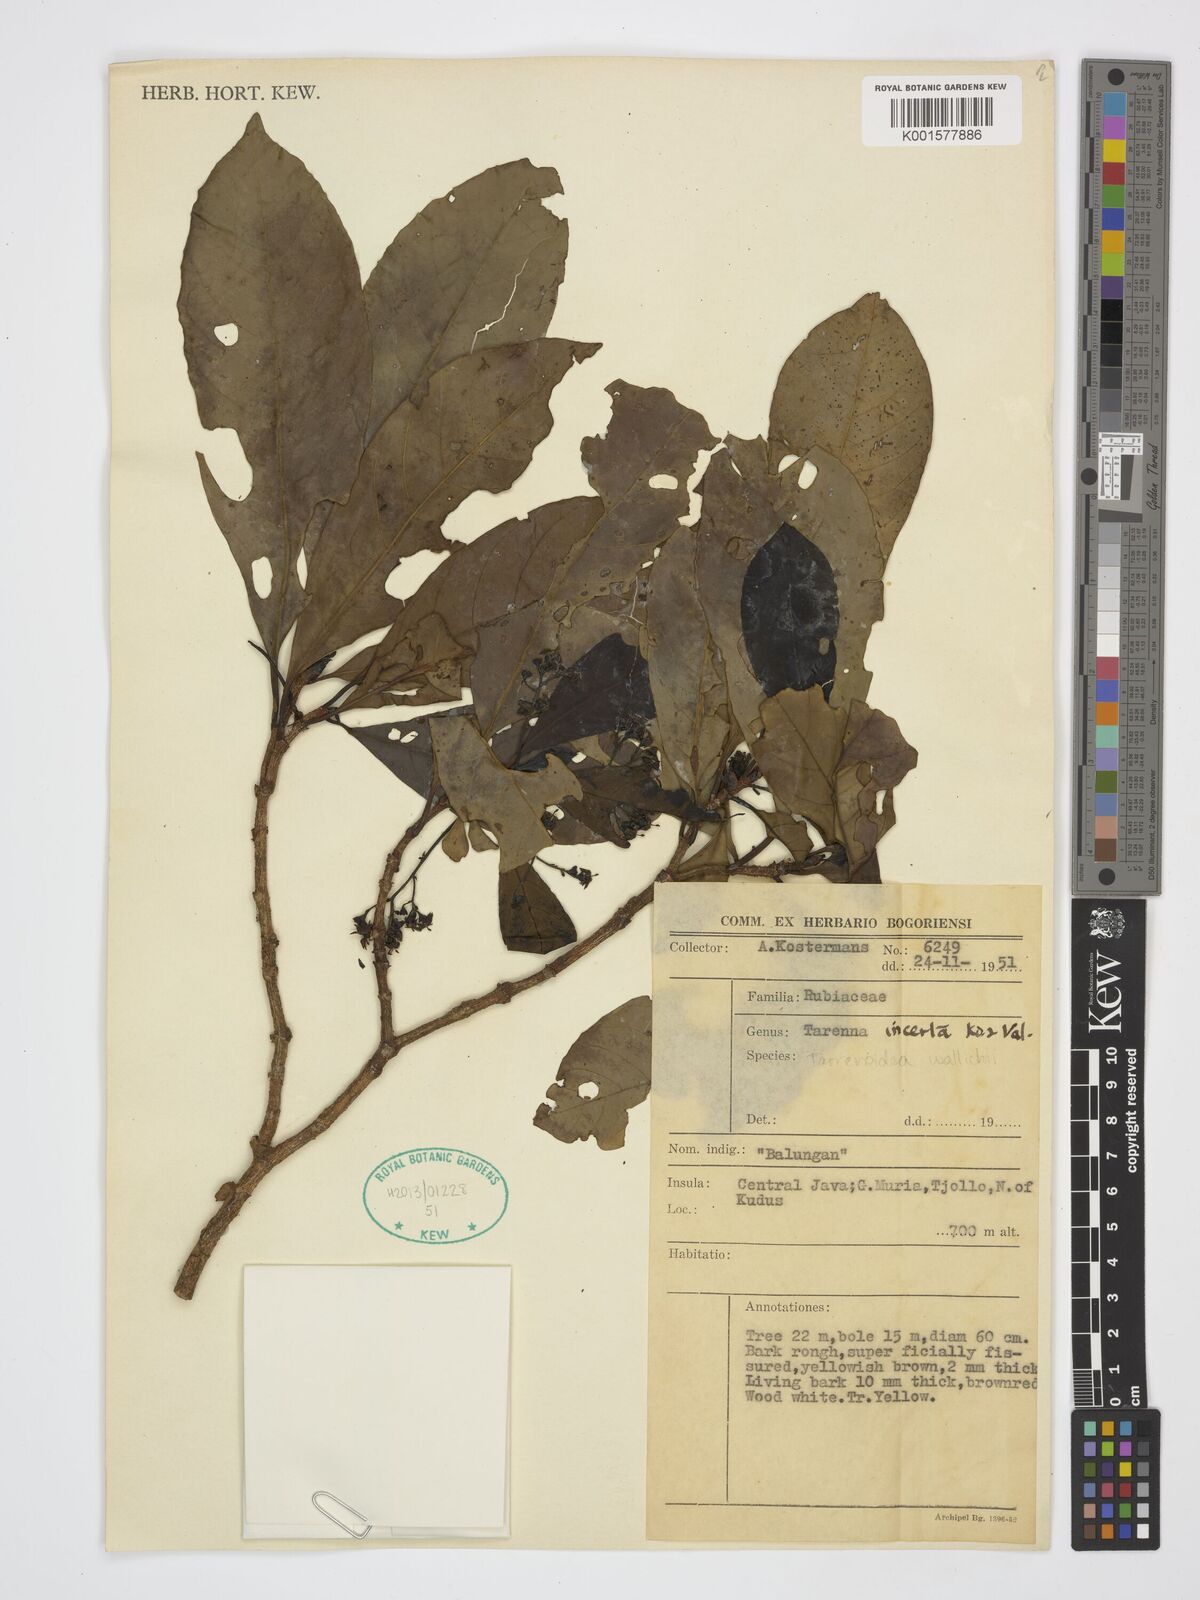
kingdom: Plantae
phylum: Tracheophyta
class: Magnoliopsida
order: Gentianales
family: Rubiaceae
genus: Tarennoidea
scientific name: Tarennoidea wallichii
